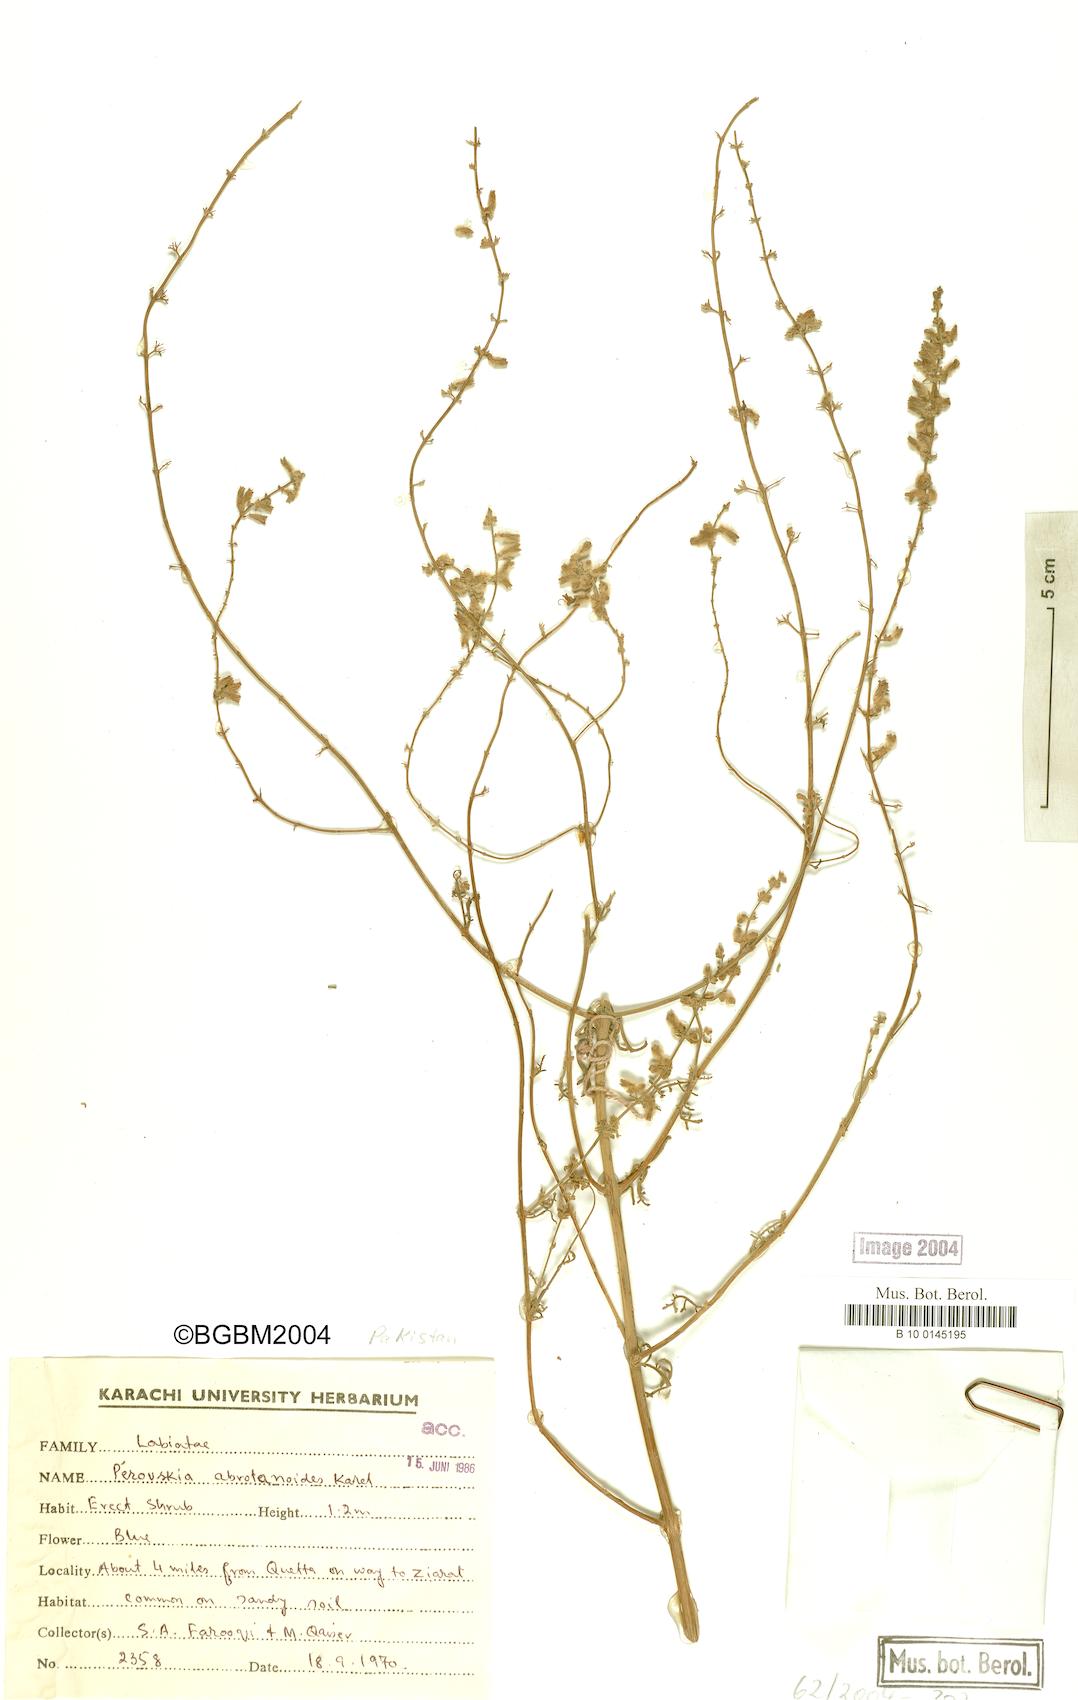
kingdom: Plantae
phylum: Tracheophyta
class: Magnoliopsida
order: Lamiales
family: Lamiaceae
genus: Salvia
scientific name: Salvia abrotanoides
